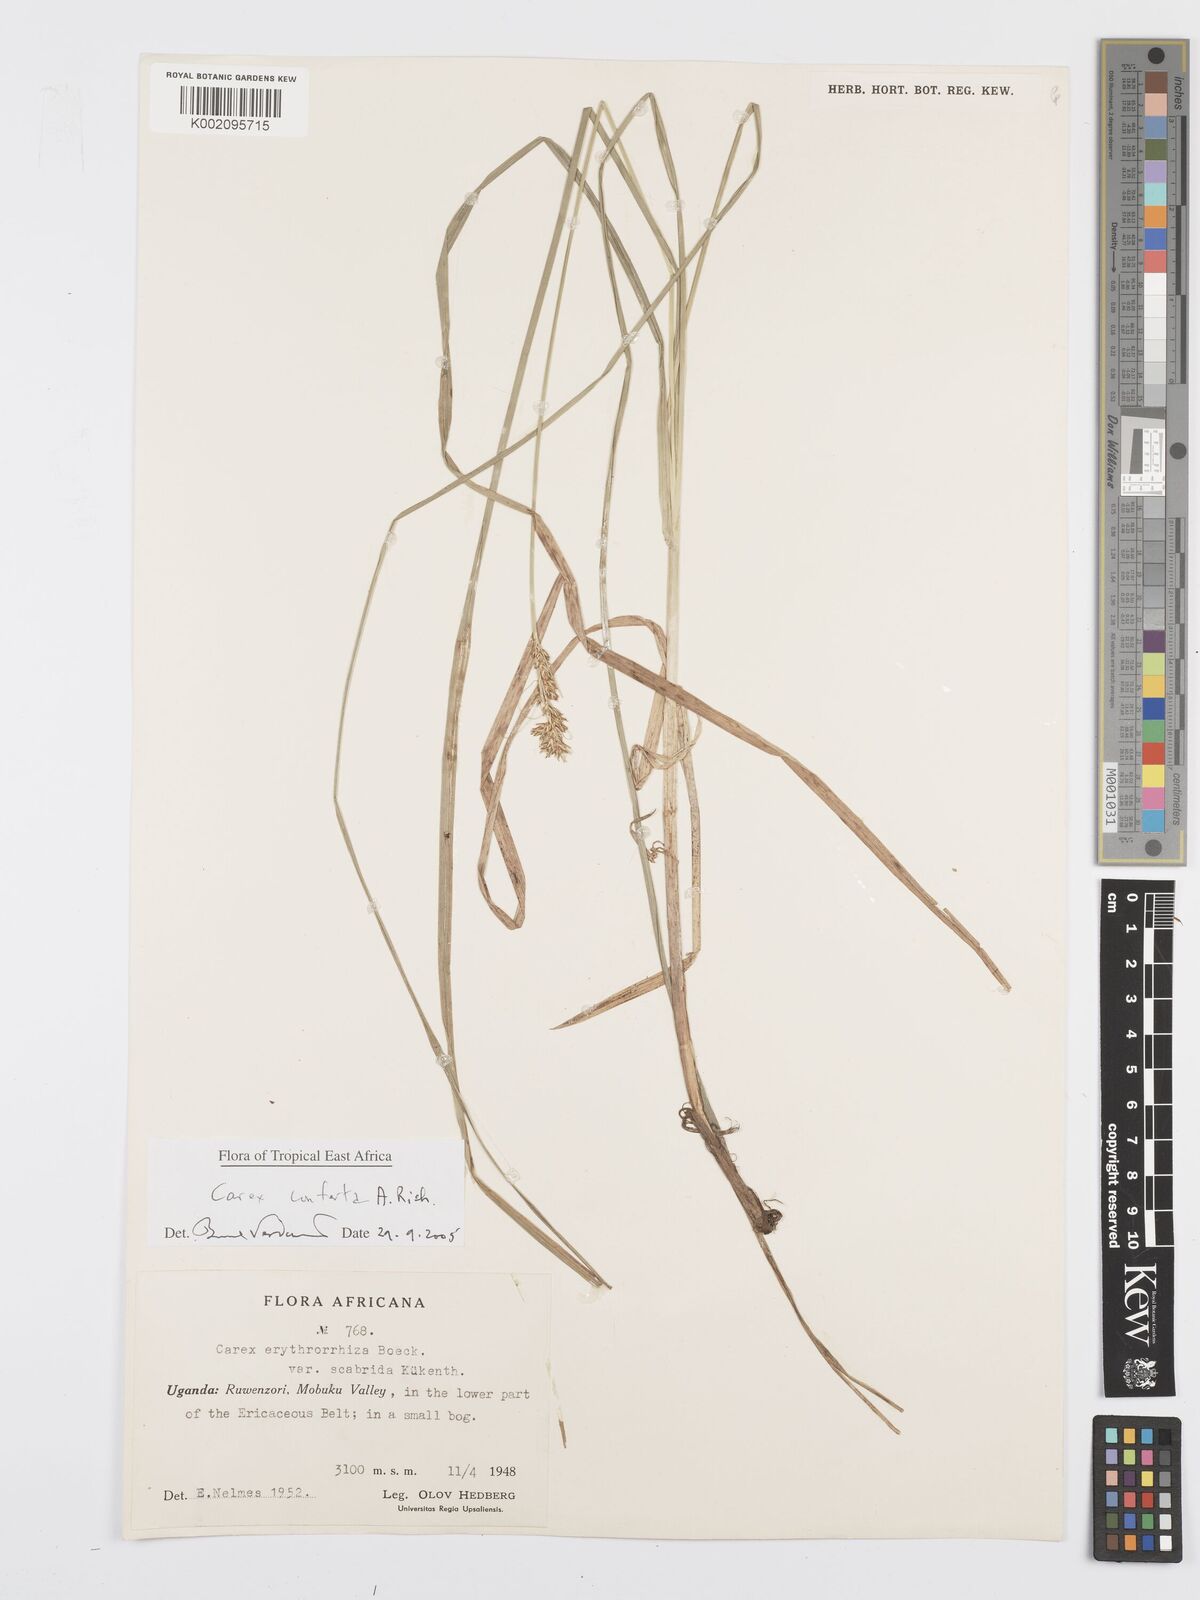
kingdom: Plantae
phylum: Tracheophyta
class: Liliopsida
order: Poales
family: Cyperaceae
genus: Carex
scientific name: Carex conferta
